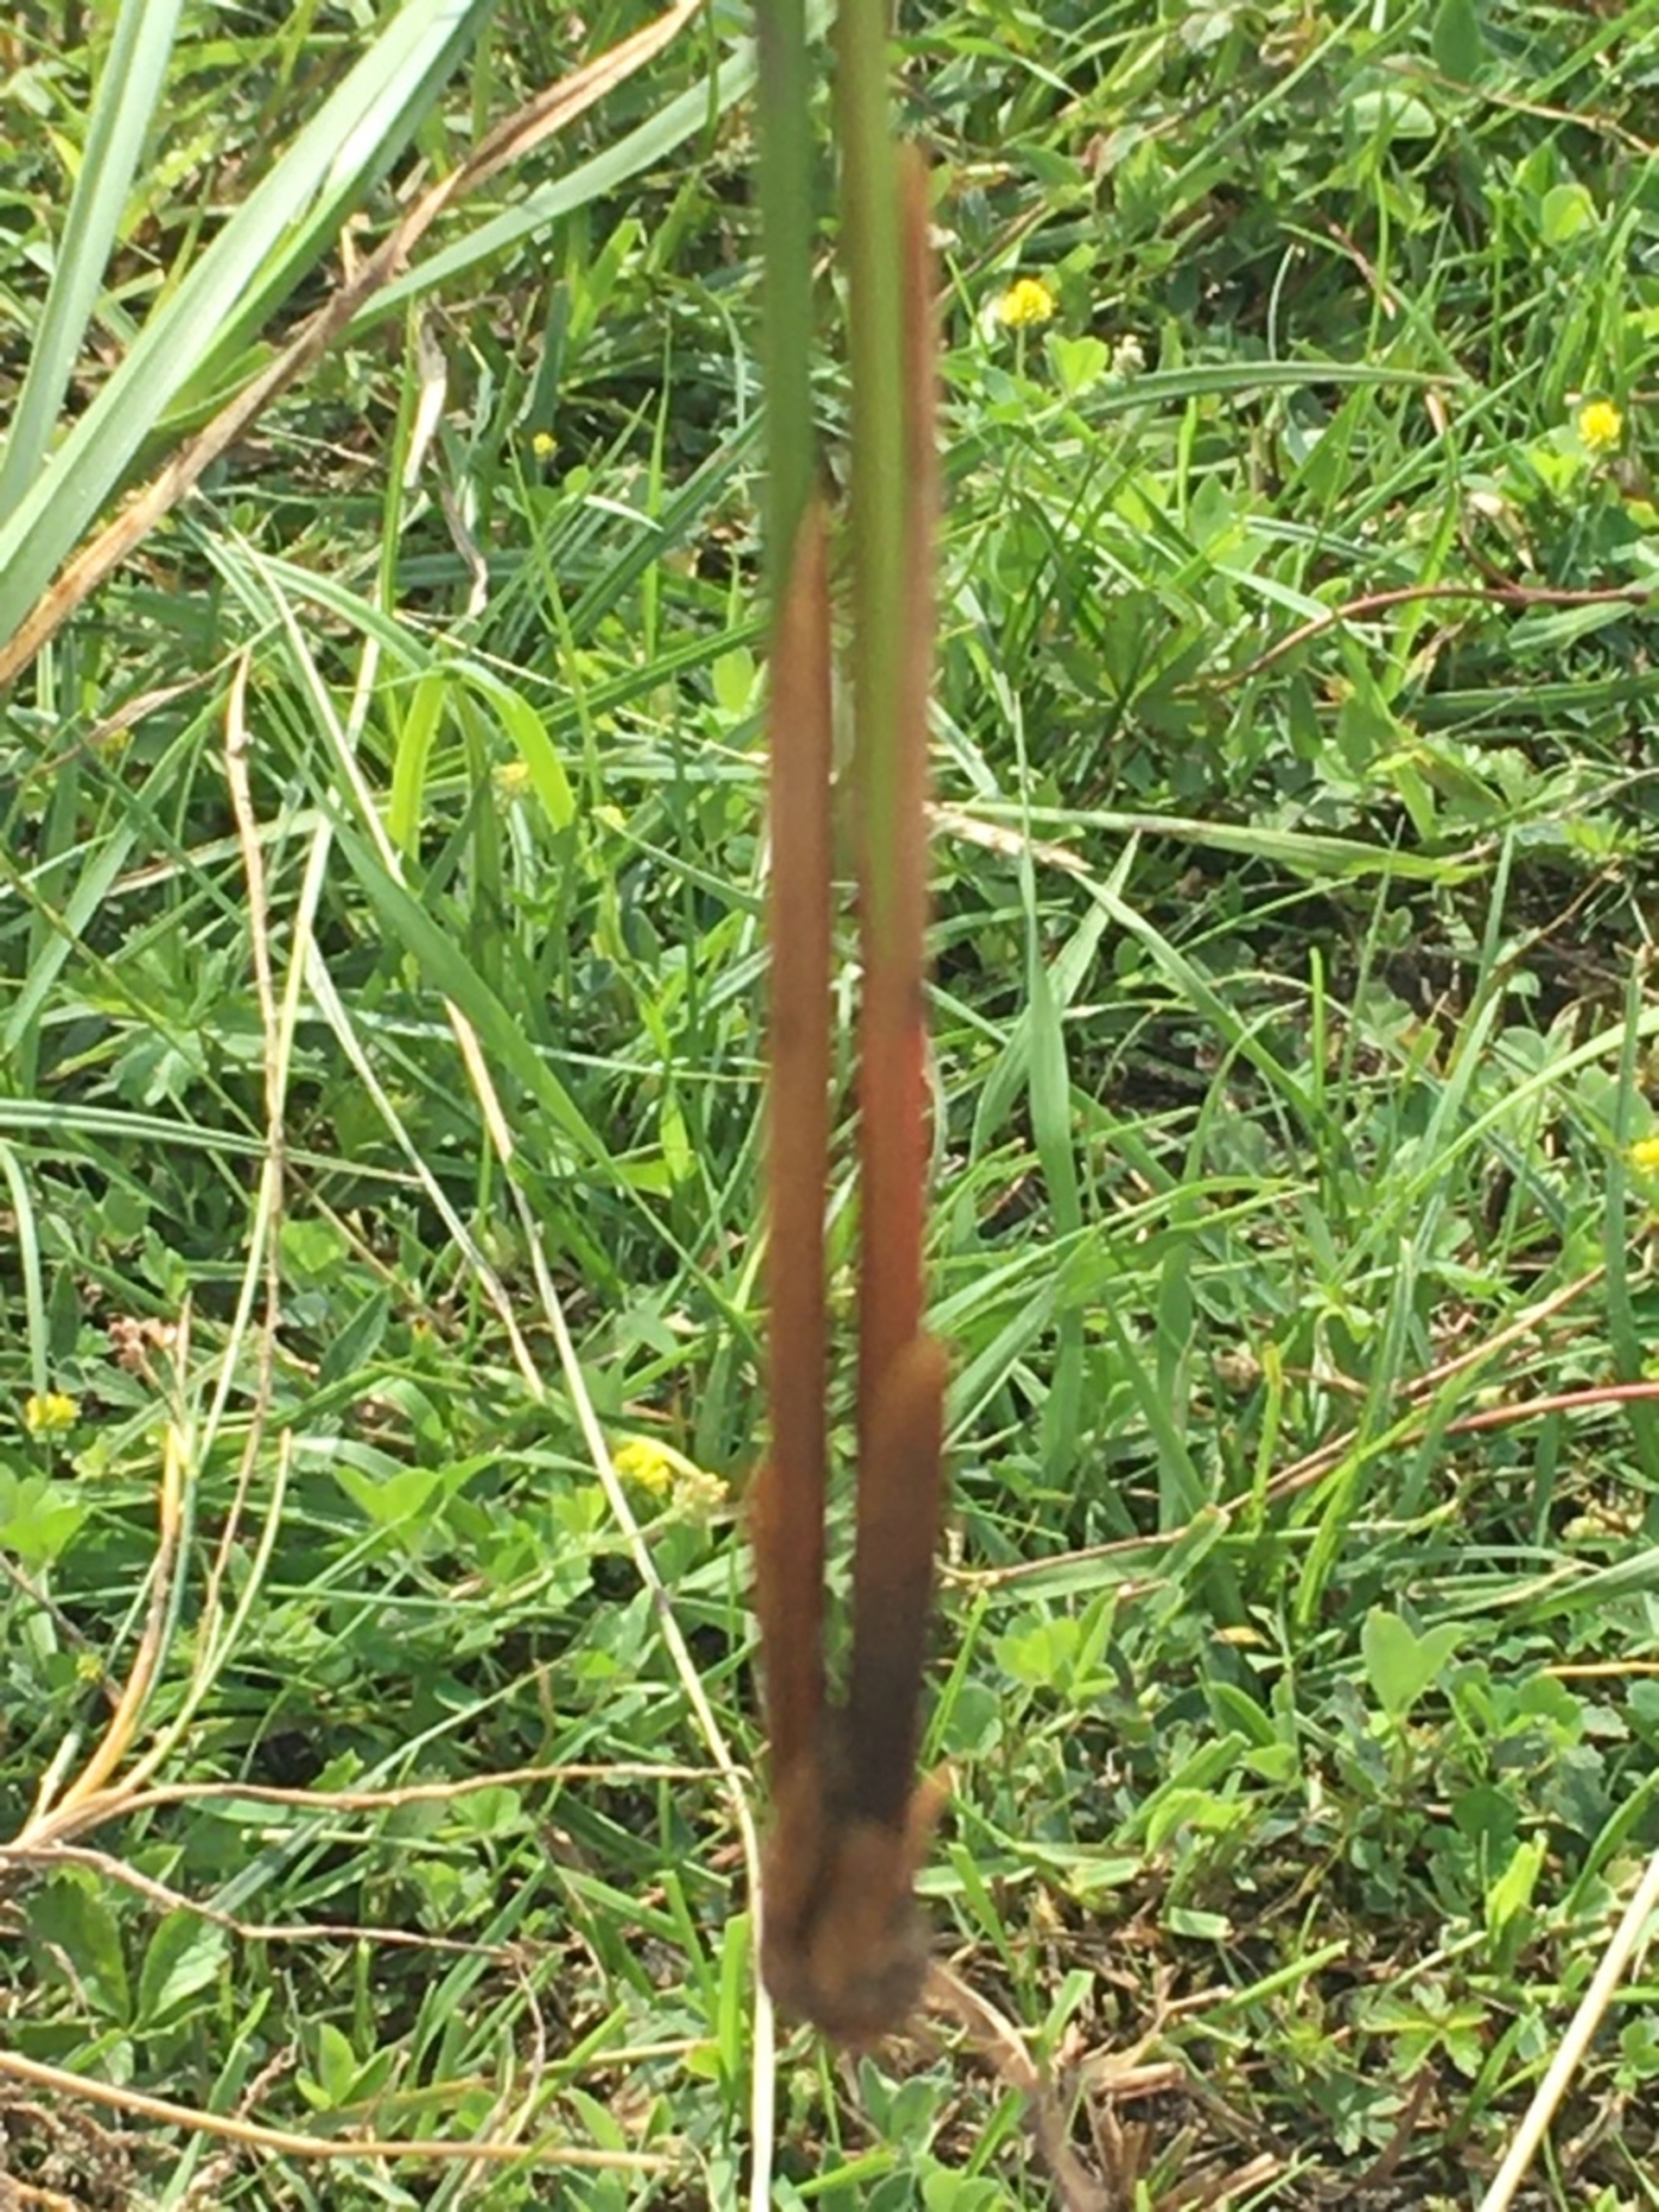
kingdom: Plantae
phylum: Tracheophyta
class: Liliopsida
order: Poales
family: Juncaceae
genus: Juncus
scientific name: Juncus conglomeratus
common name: Knop-siv
